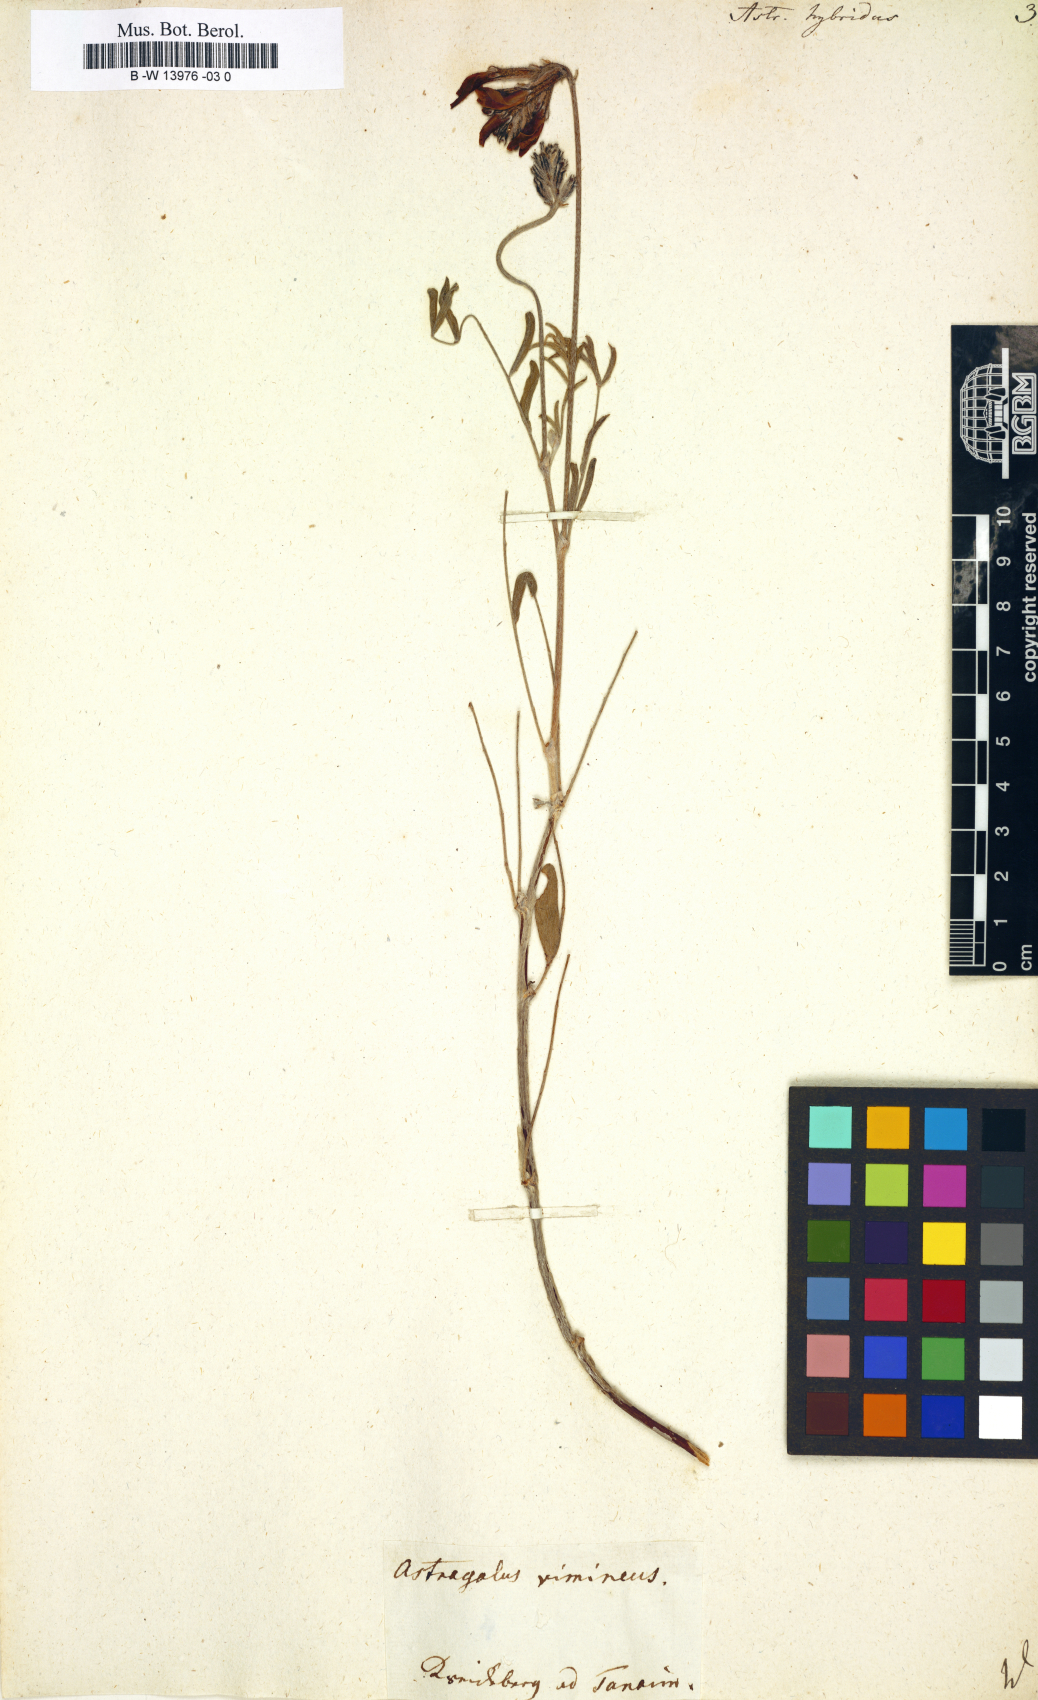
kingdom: Plantae
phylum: Tracheophyta
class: Magnoliopsida
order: Fabales
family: Fabaceae
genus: Astragalus
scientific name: Astragalus hybridus
